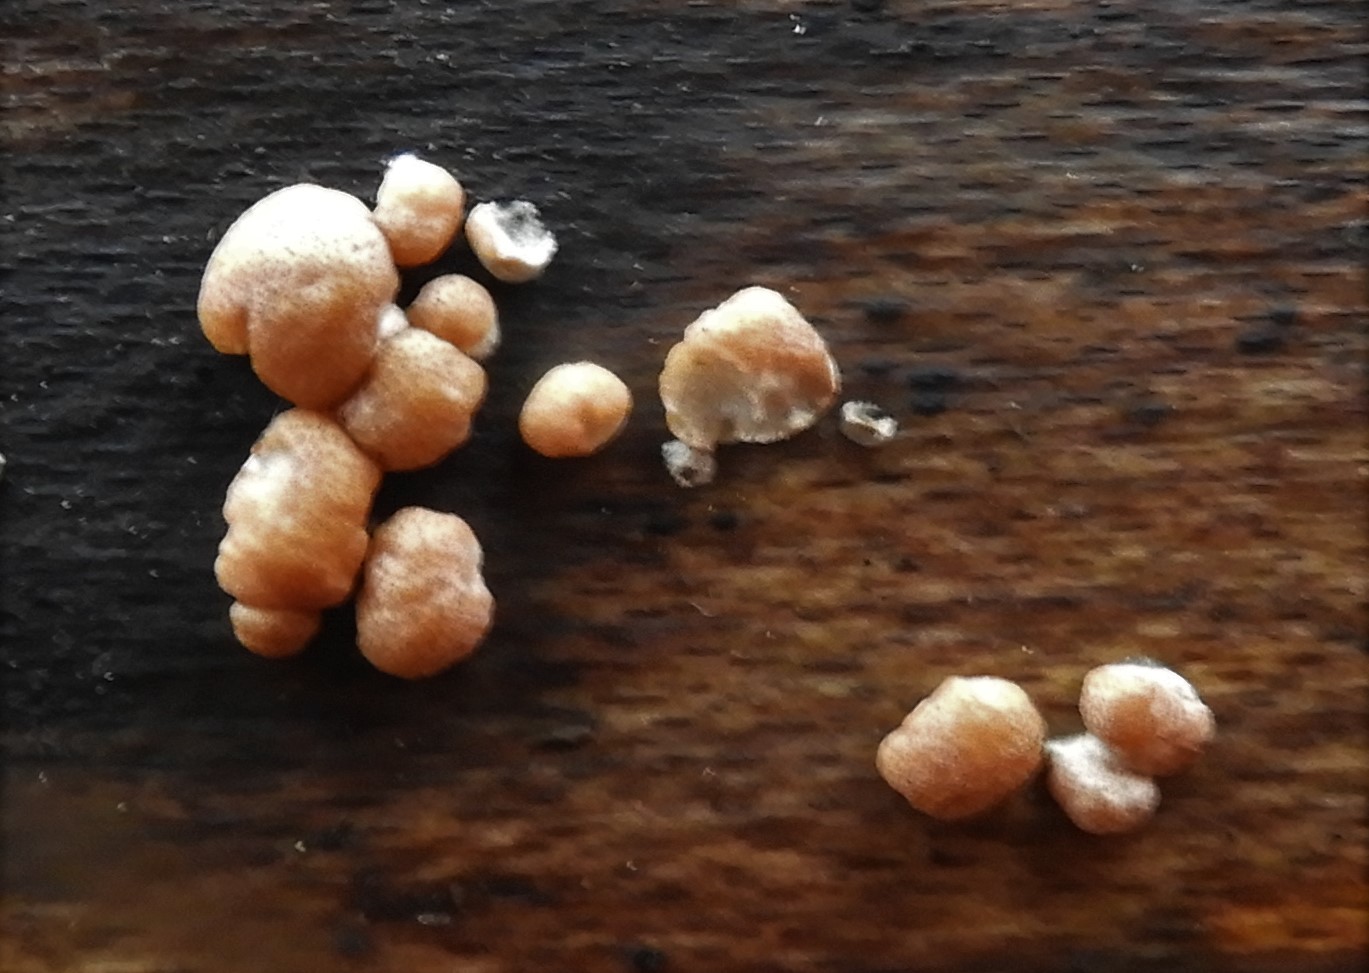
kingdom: Fungi
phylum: Ascomycota
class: Sordariomycetes
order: Hypocreales
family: Hypocreaceae
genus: Trichoderma
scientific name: Trichoderma europaeum
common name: rosabrun kødkerne
